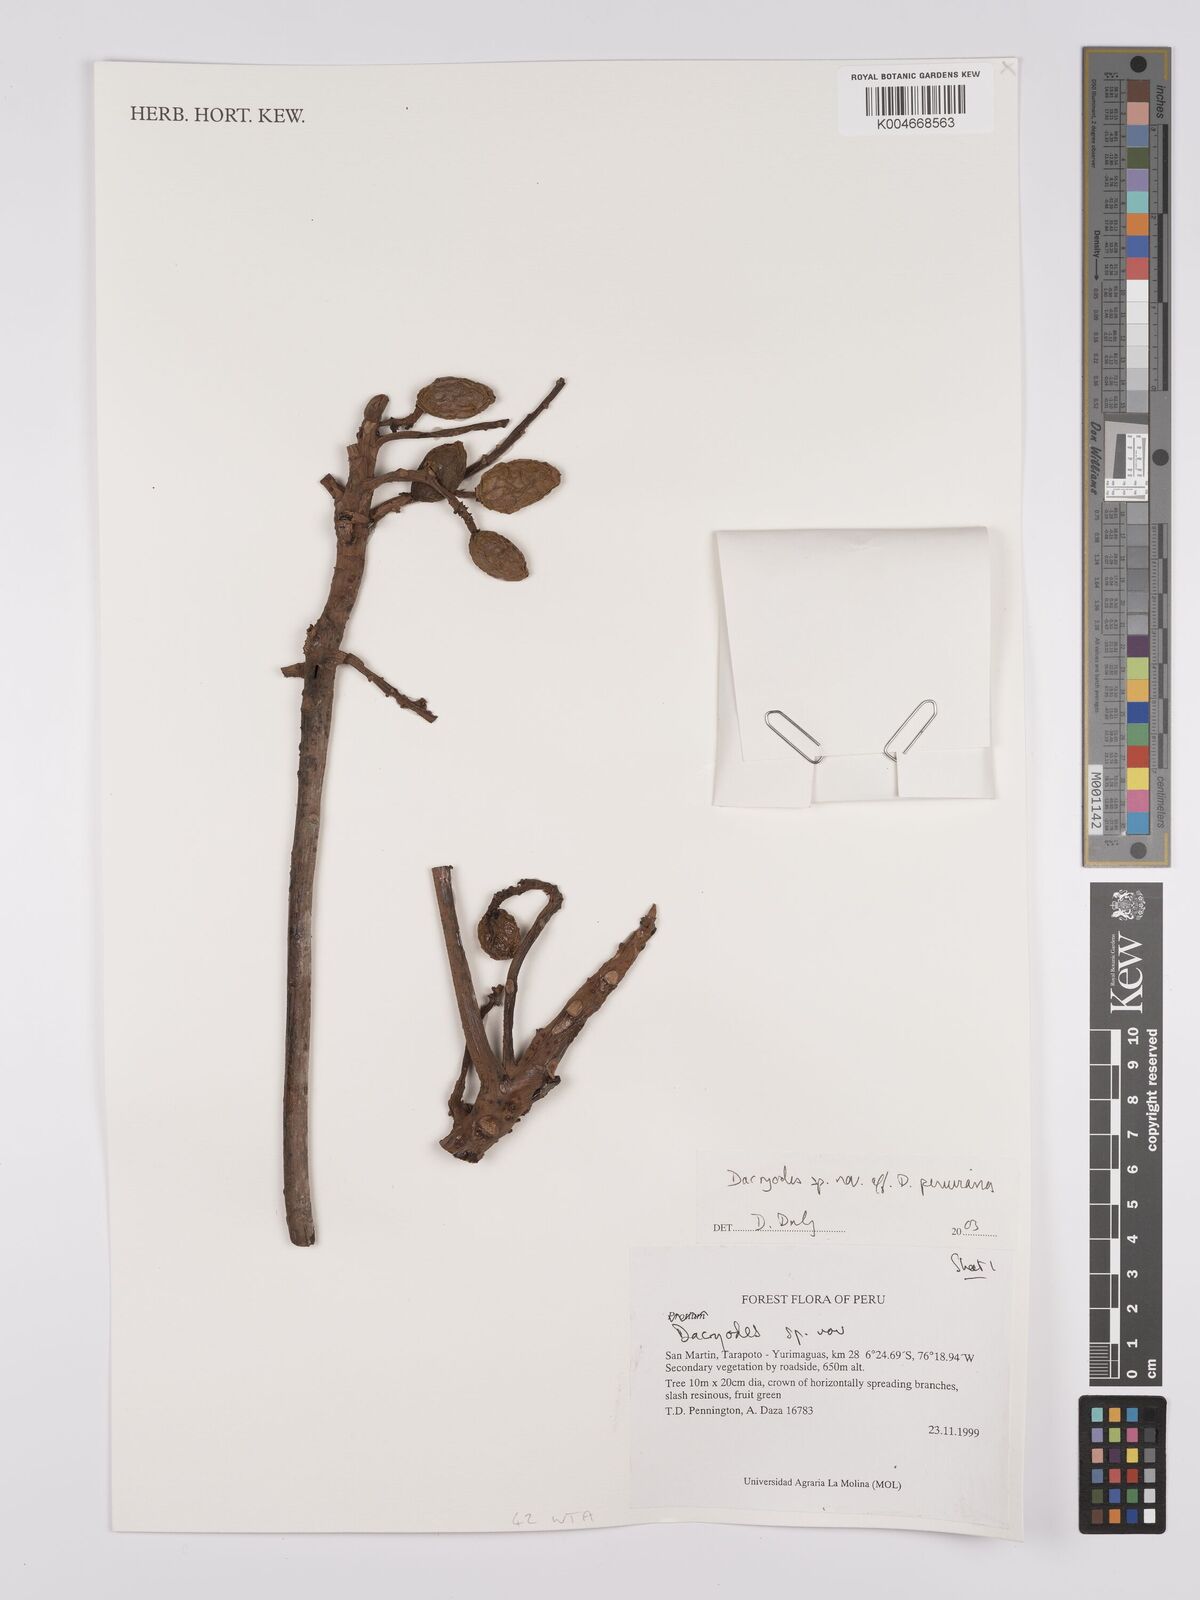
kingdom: Plantae
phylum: Tracheophyta
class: Magnoliopsida
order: Sapindales
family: Burseraceae
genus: Dacryodes
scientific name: Dacryodes
